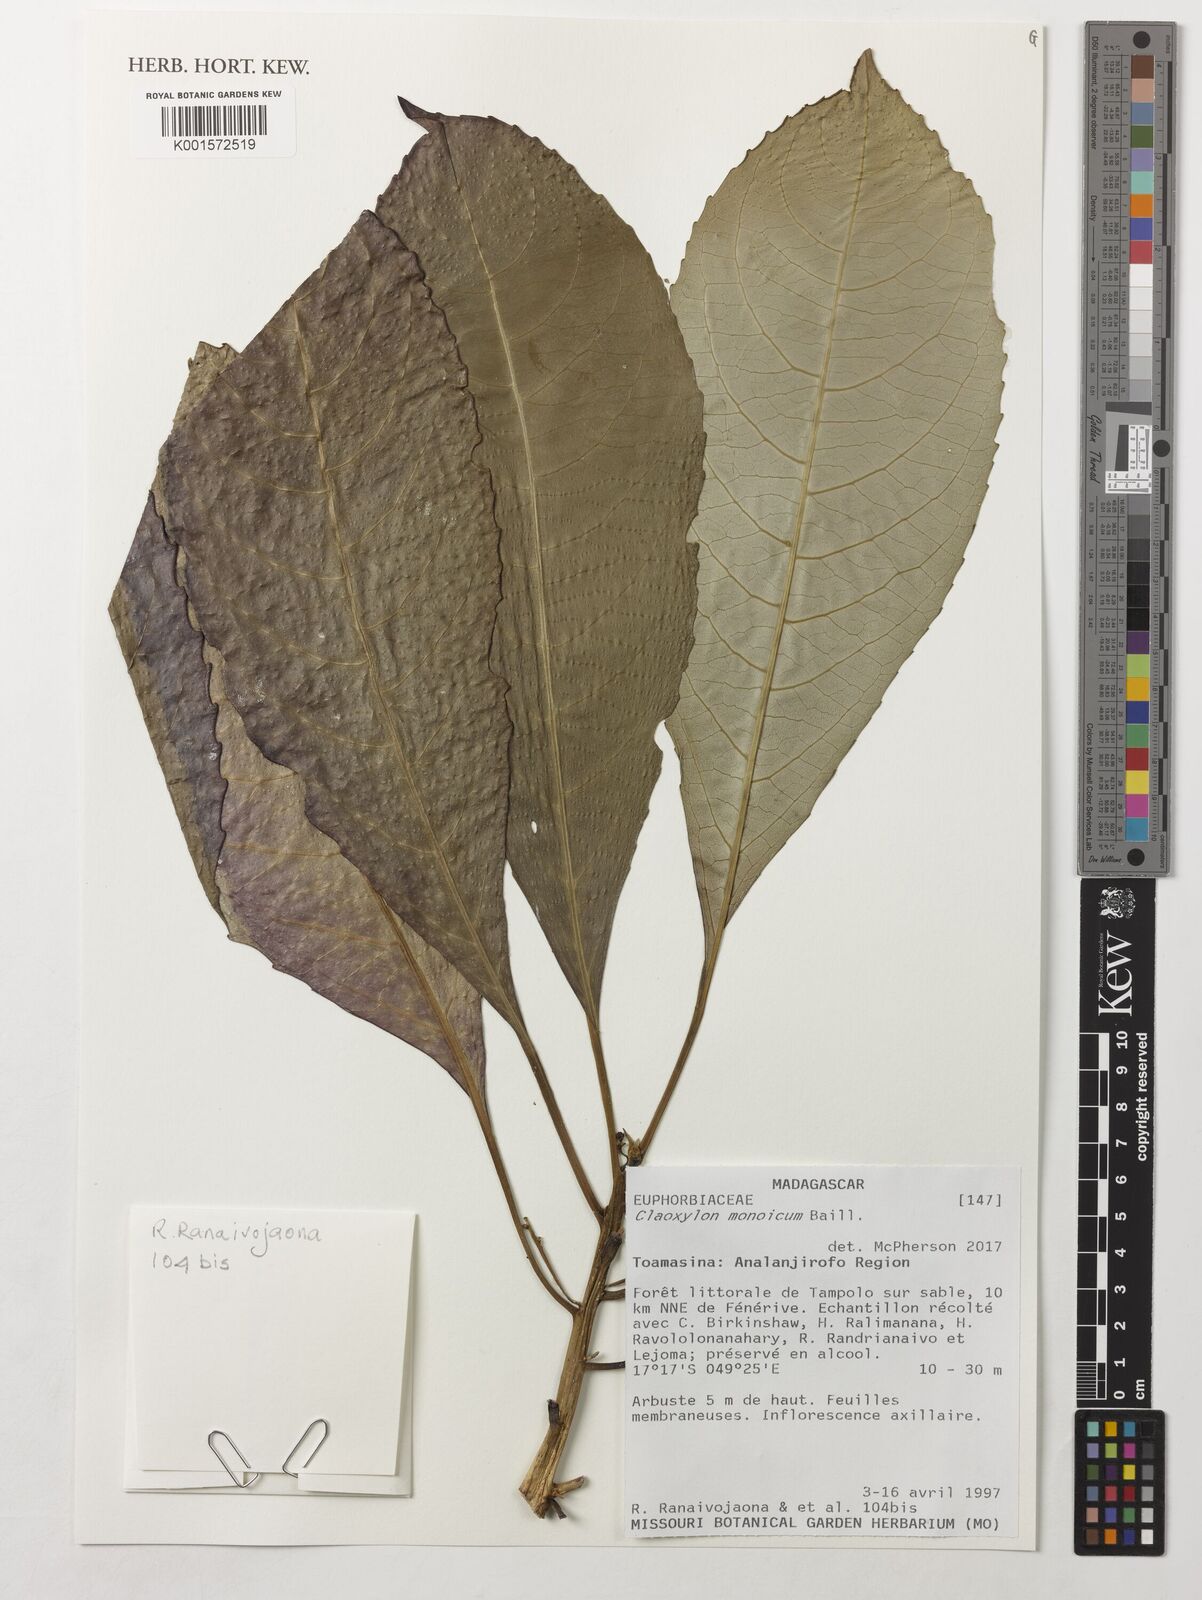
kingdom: Plantae
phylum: Tracheophyta
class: Magnoliopsida
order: Malpighiales
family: Euphorbiaceae
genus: Claoxylon
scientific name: Claoxylon monoicum
